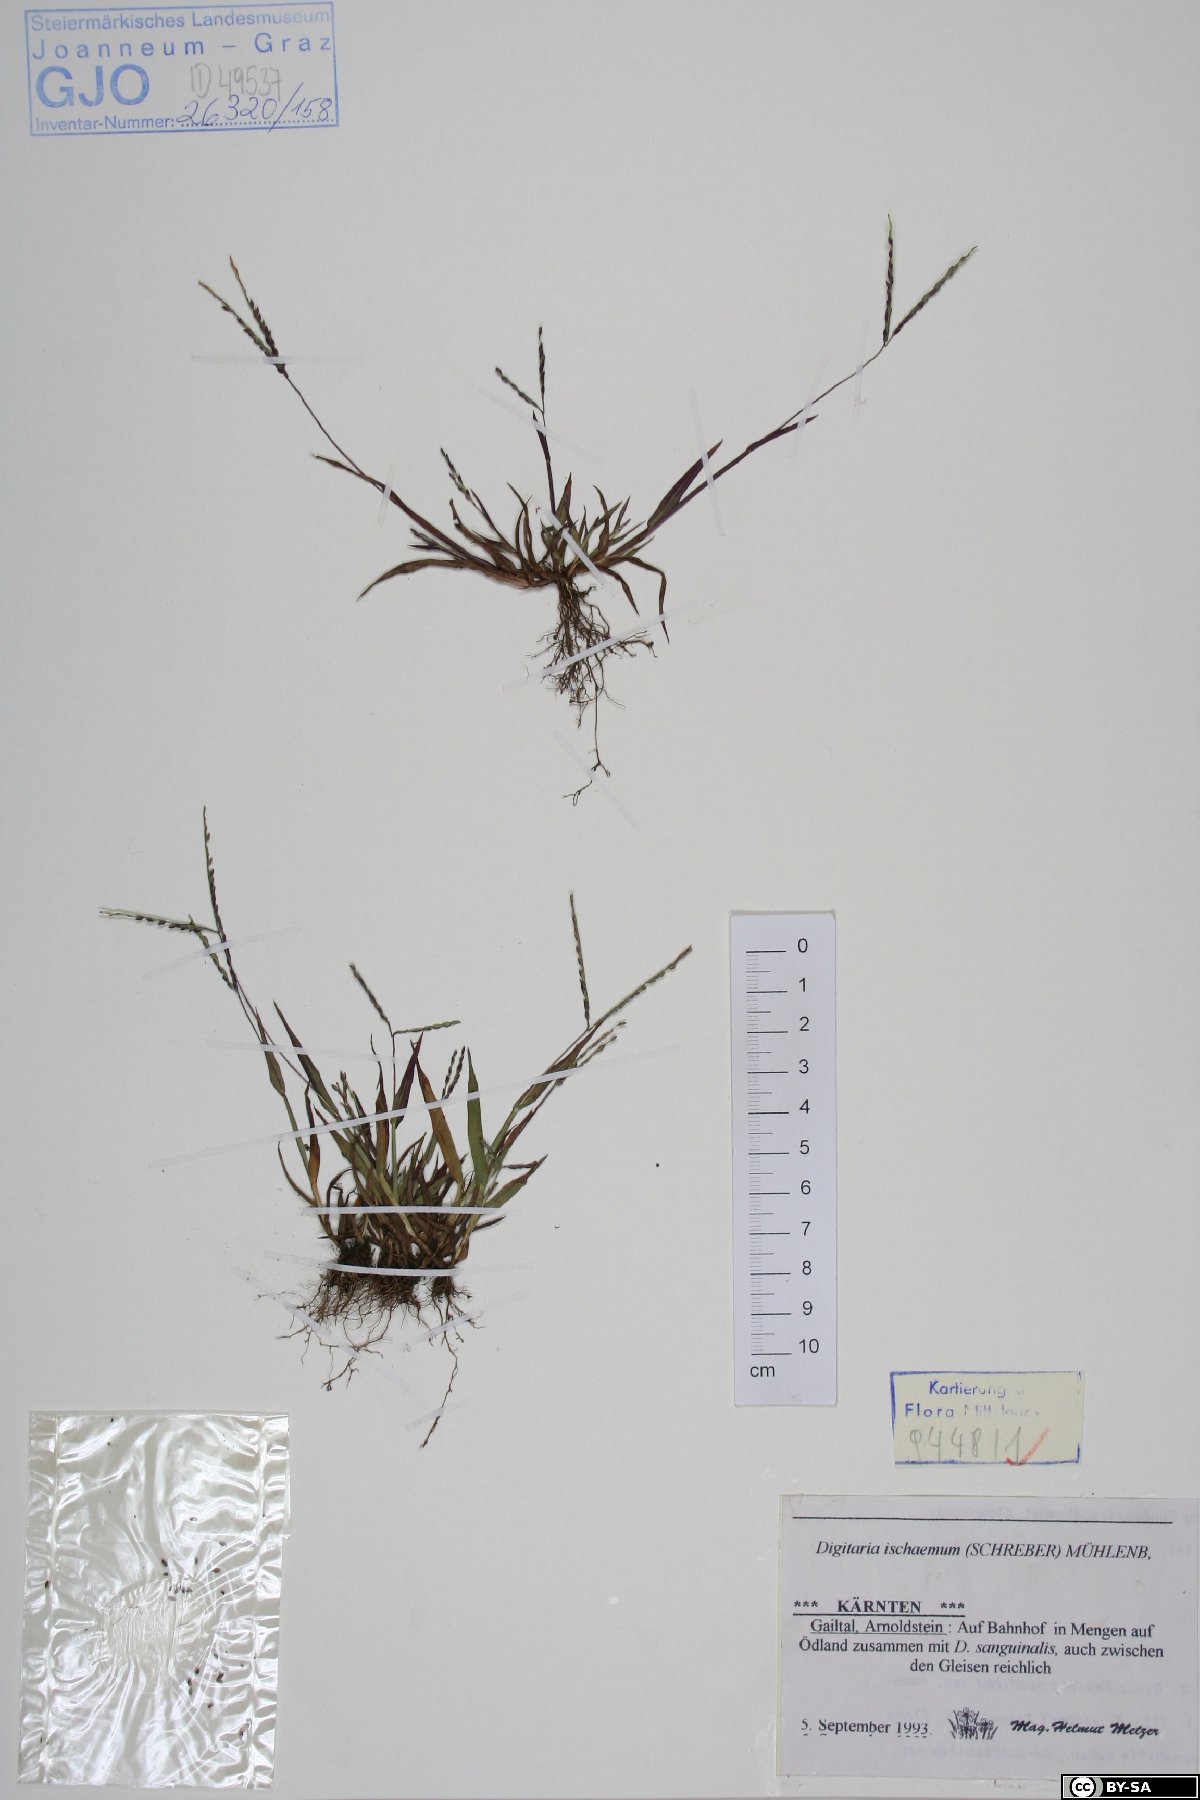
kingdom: Plantae
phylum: Tracheophyta
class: Liliopsida
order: Poales
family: Poaceae
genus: Digitaria
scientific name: Digitaria ischaemum
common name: Smooth crabgrass
